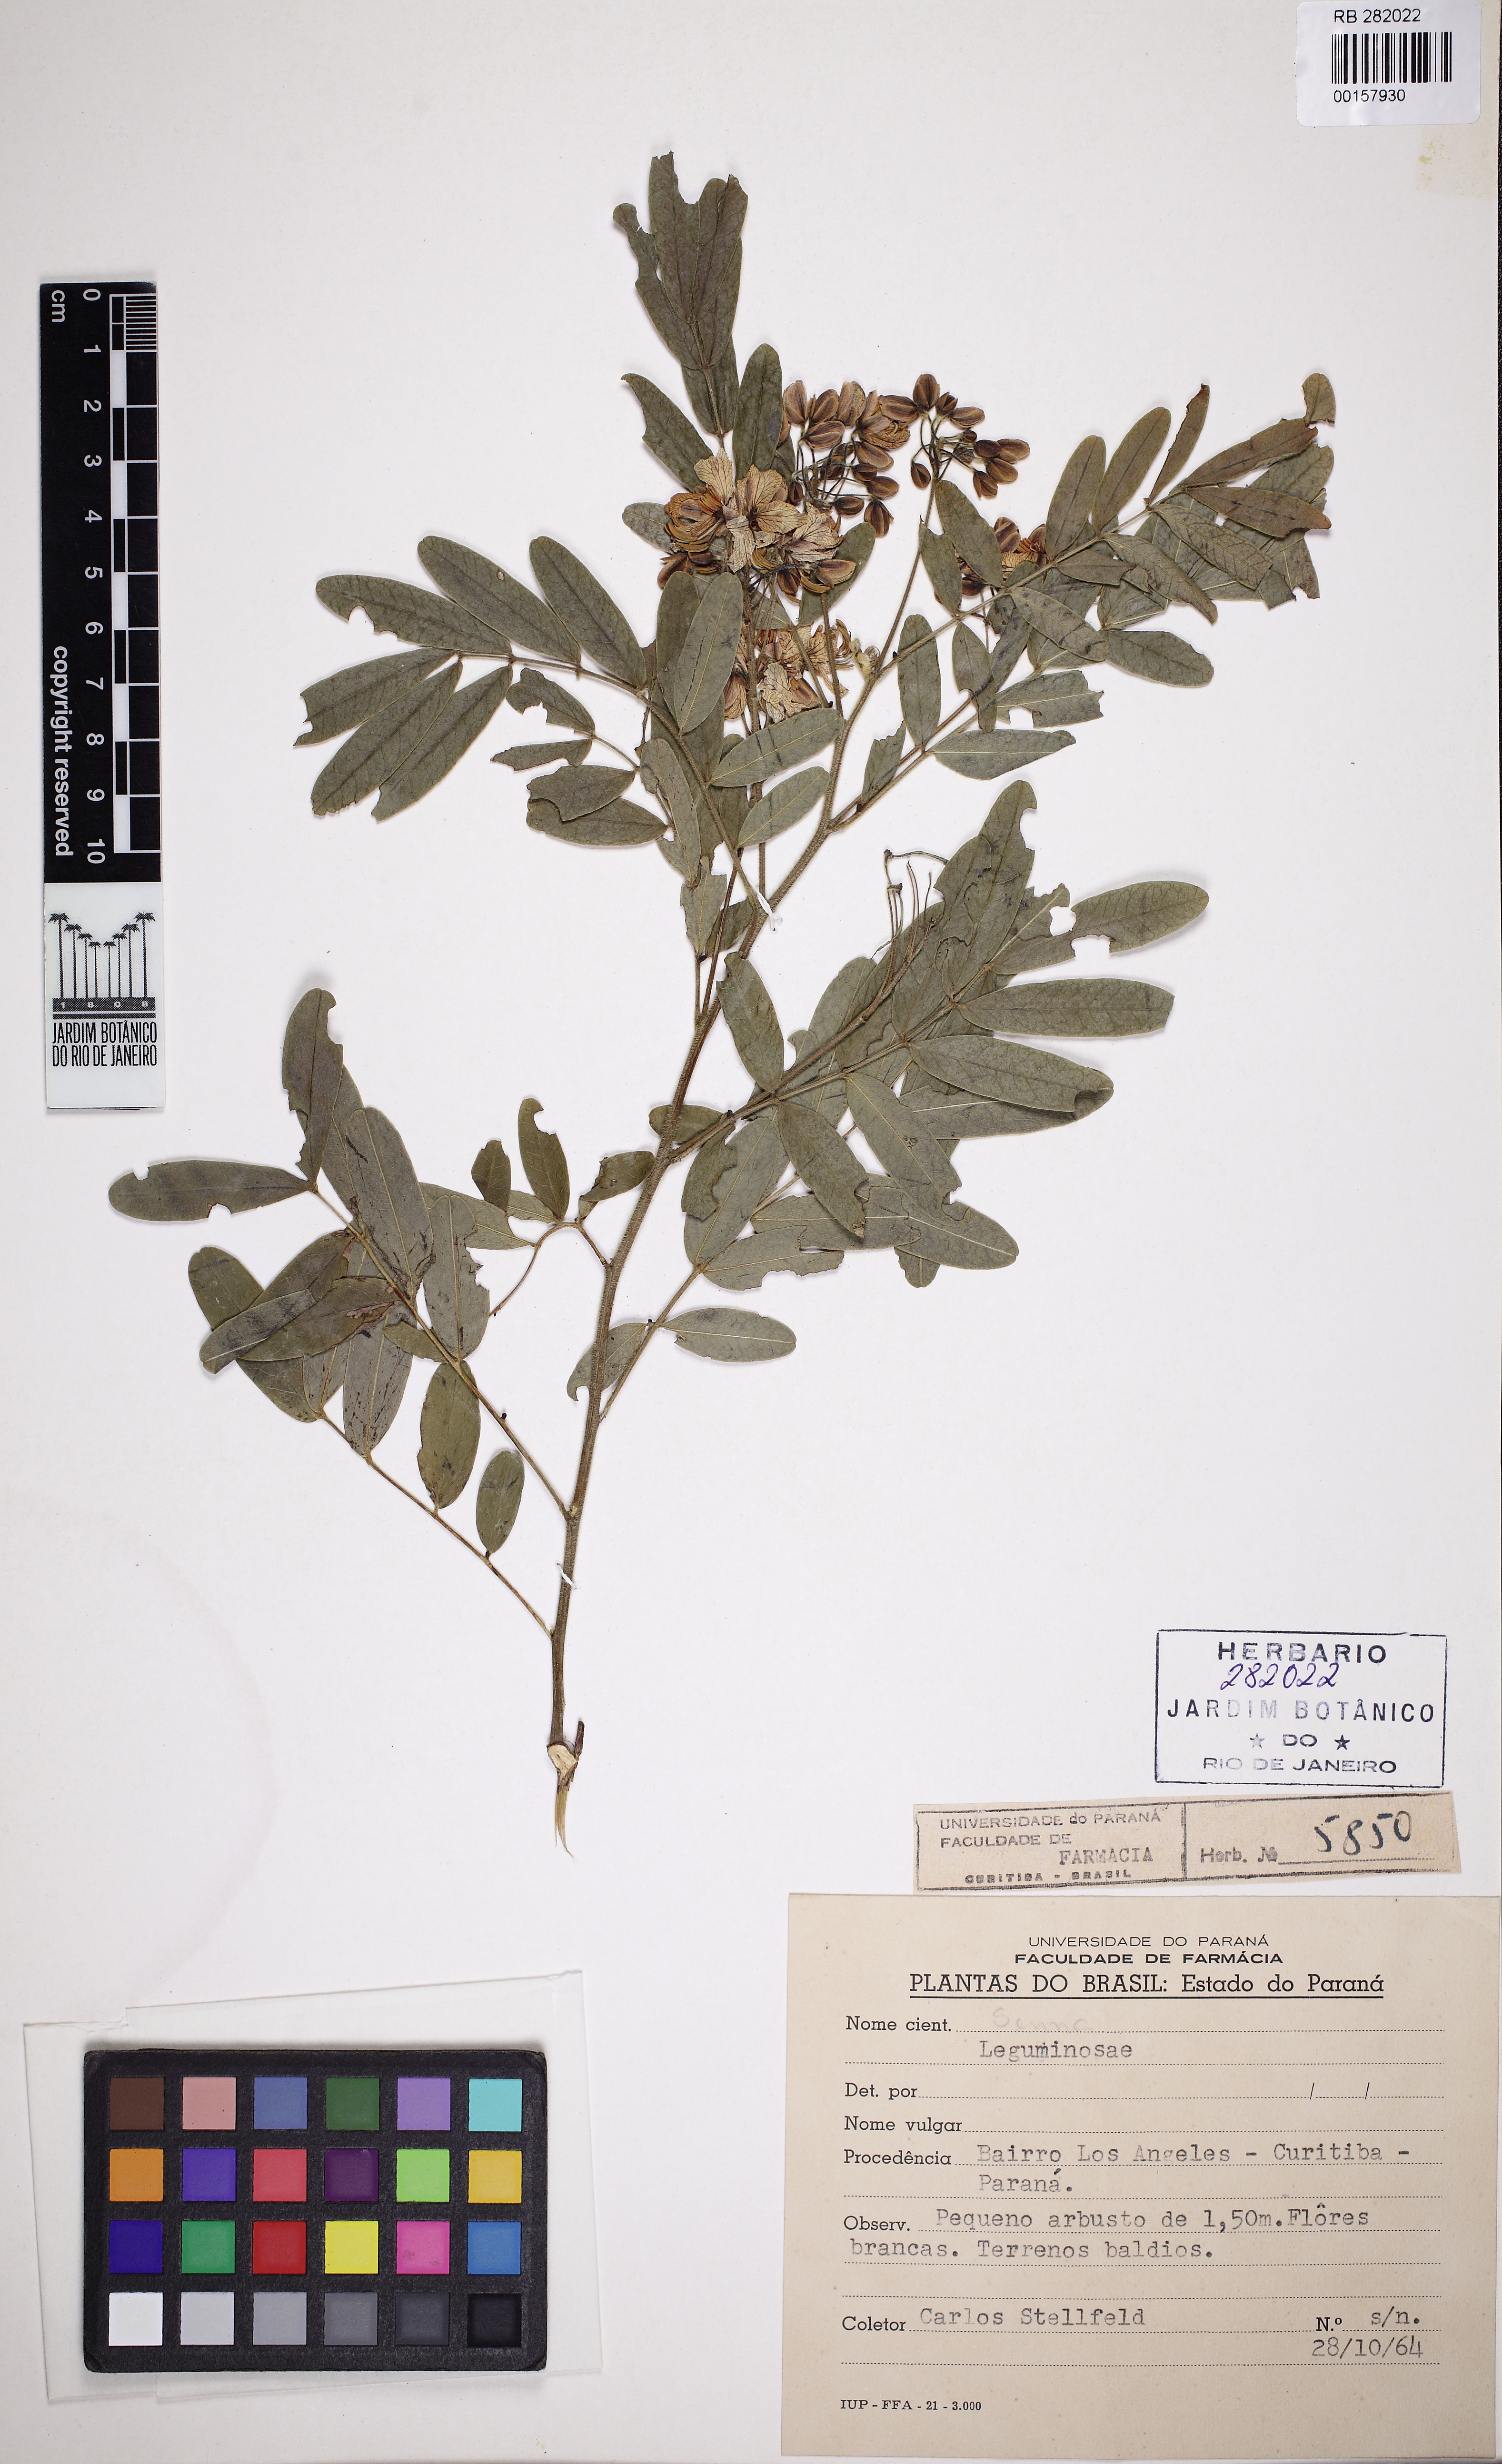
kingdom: Plantae
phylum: Tracheophyta
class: Magnoliopsida
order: Fabales
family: Fabaceae
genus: Senna
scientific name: Senna neglecta
